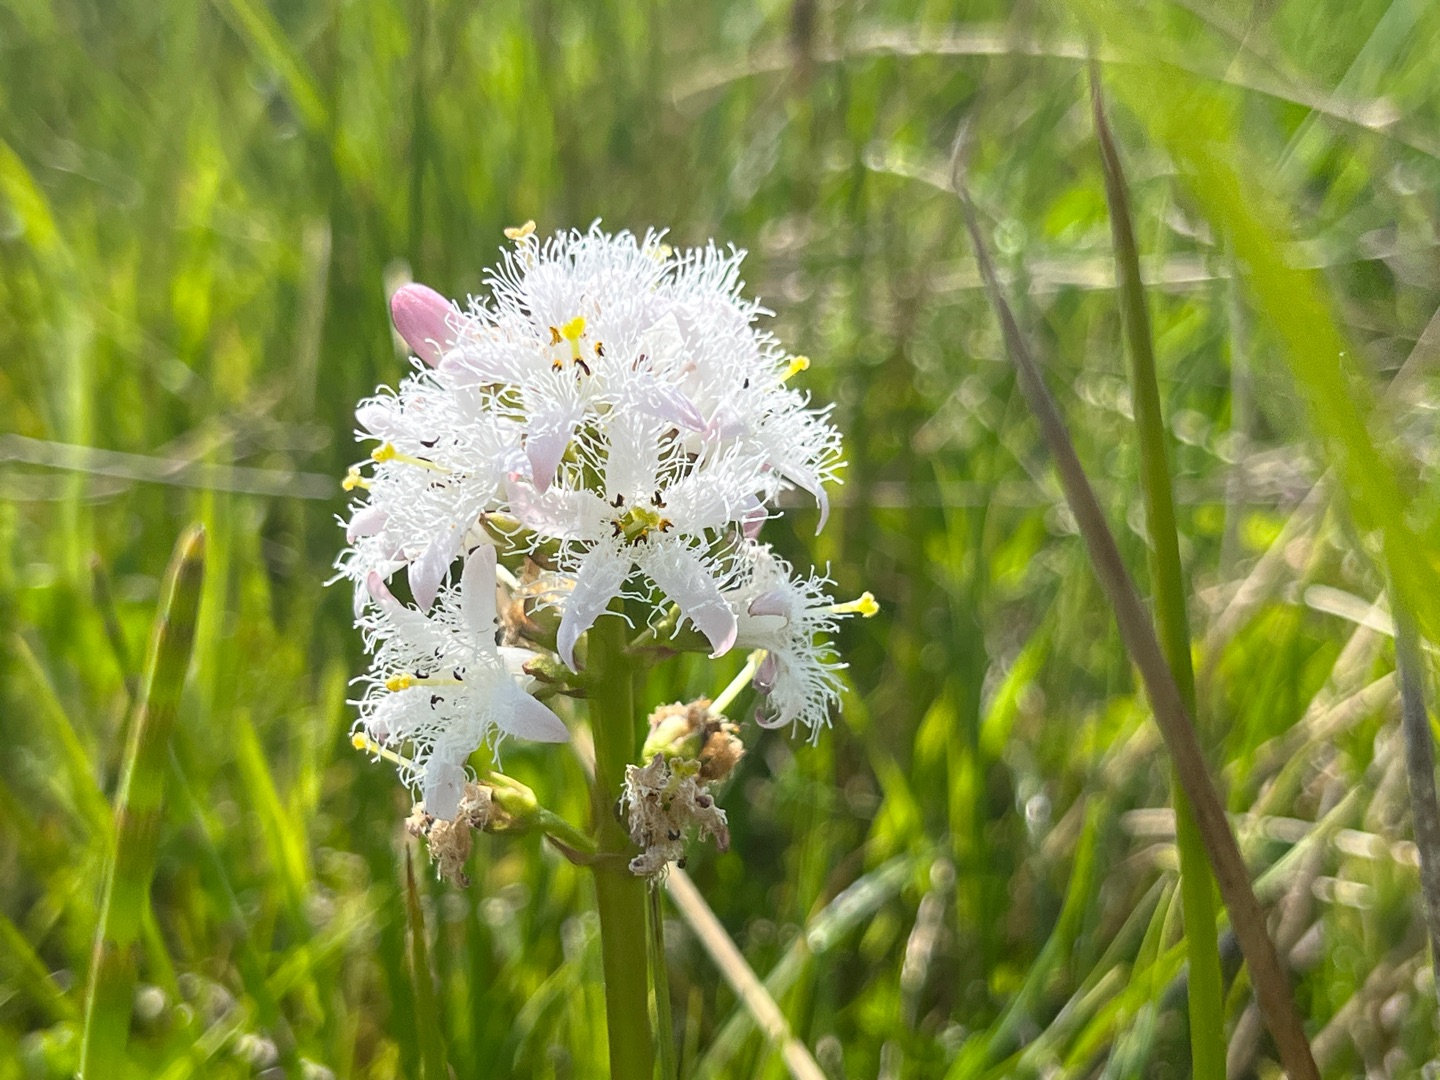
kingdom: Plantae
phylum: Tracheophyta
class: Magnoliopsida
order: Asterales
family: Menyanthaceae
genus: Menyanthes
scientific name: Menyanthes trifoliata
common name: Bukkeblad
